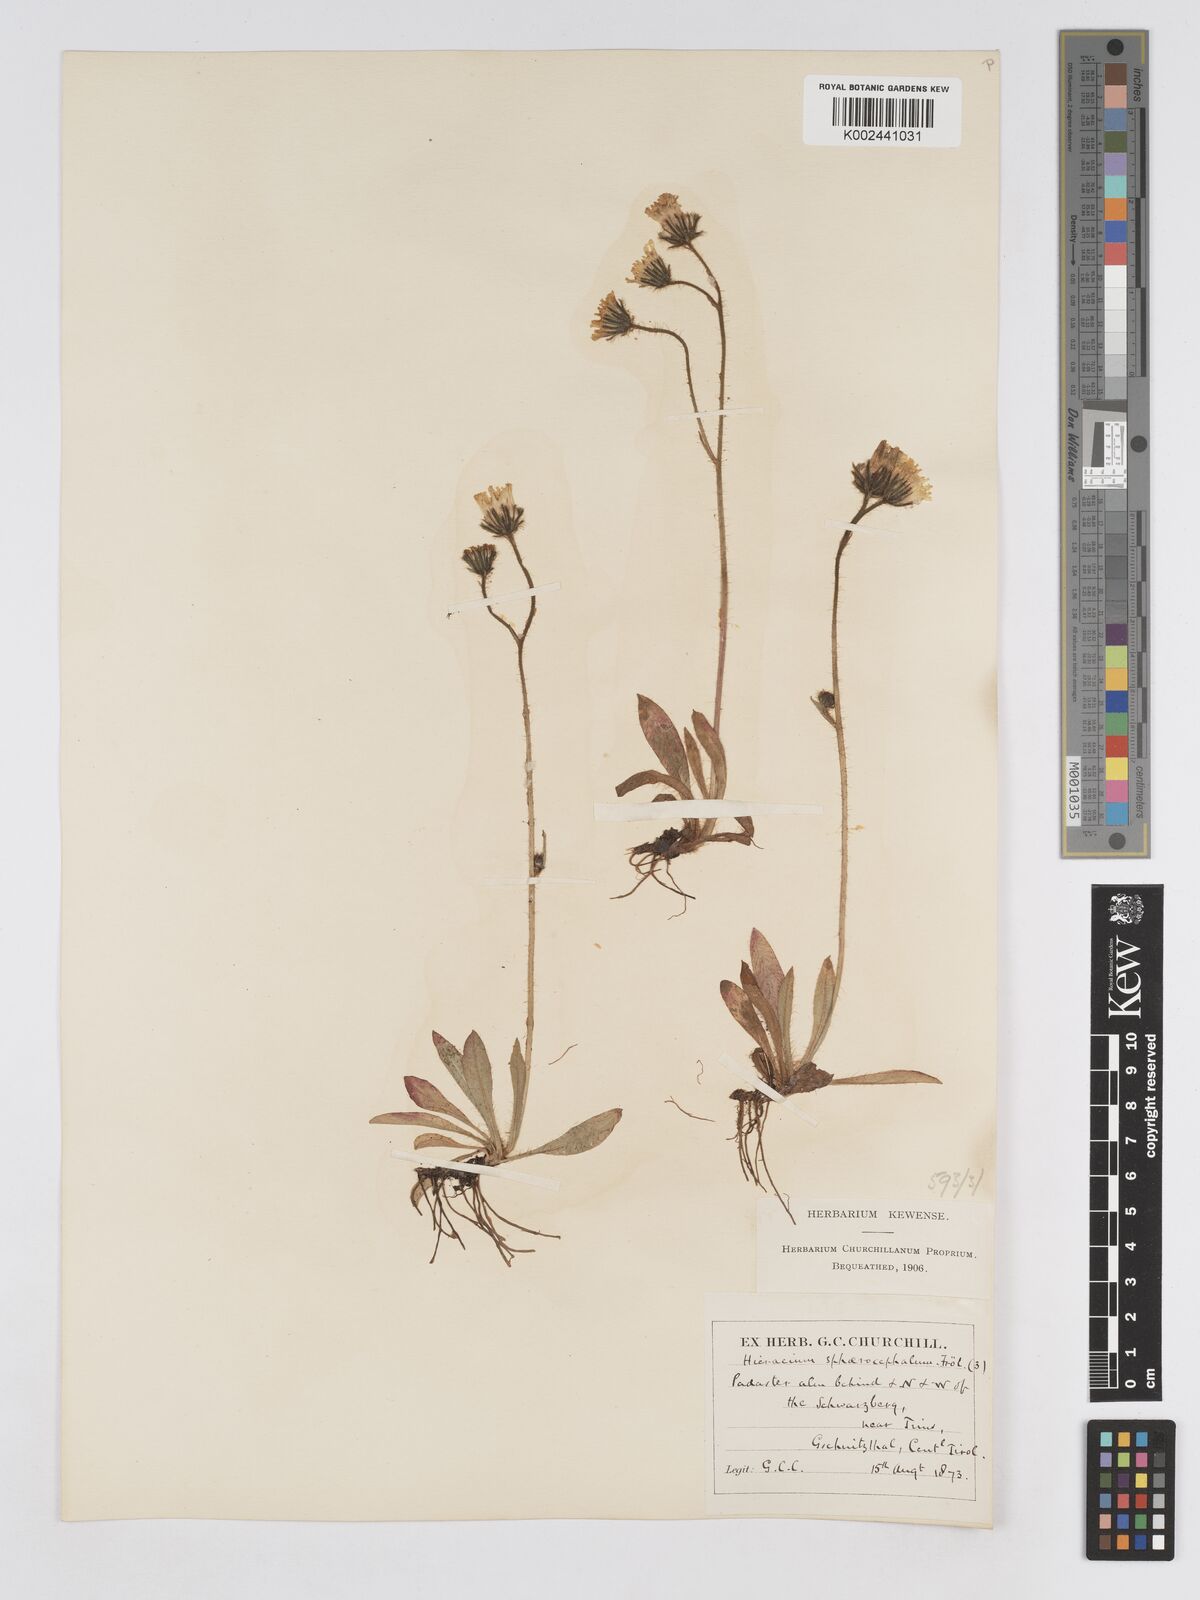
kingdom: Plantae
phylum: Tracheophyta
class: Magnoliopsida
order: Asterales
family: Asteraceae
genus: Pilosella
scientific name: Pilosella sphaerocephala
